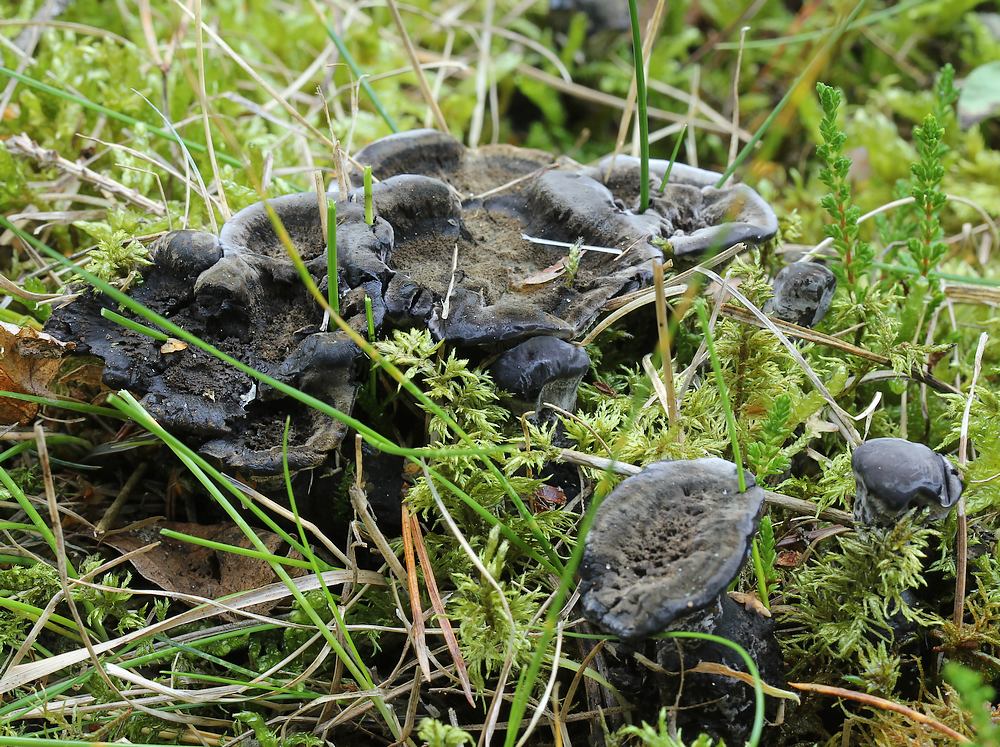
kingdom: Fungi
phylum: Basidiomycota
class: Agaricomycetes
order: Thelephorales
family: Thelephoraceae
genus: Phellodon
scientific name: Phellodon
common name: mørk duftpigsvamp
